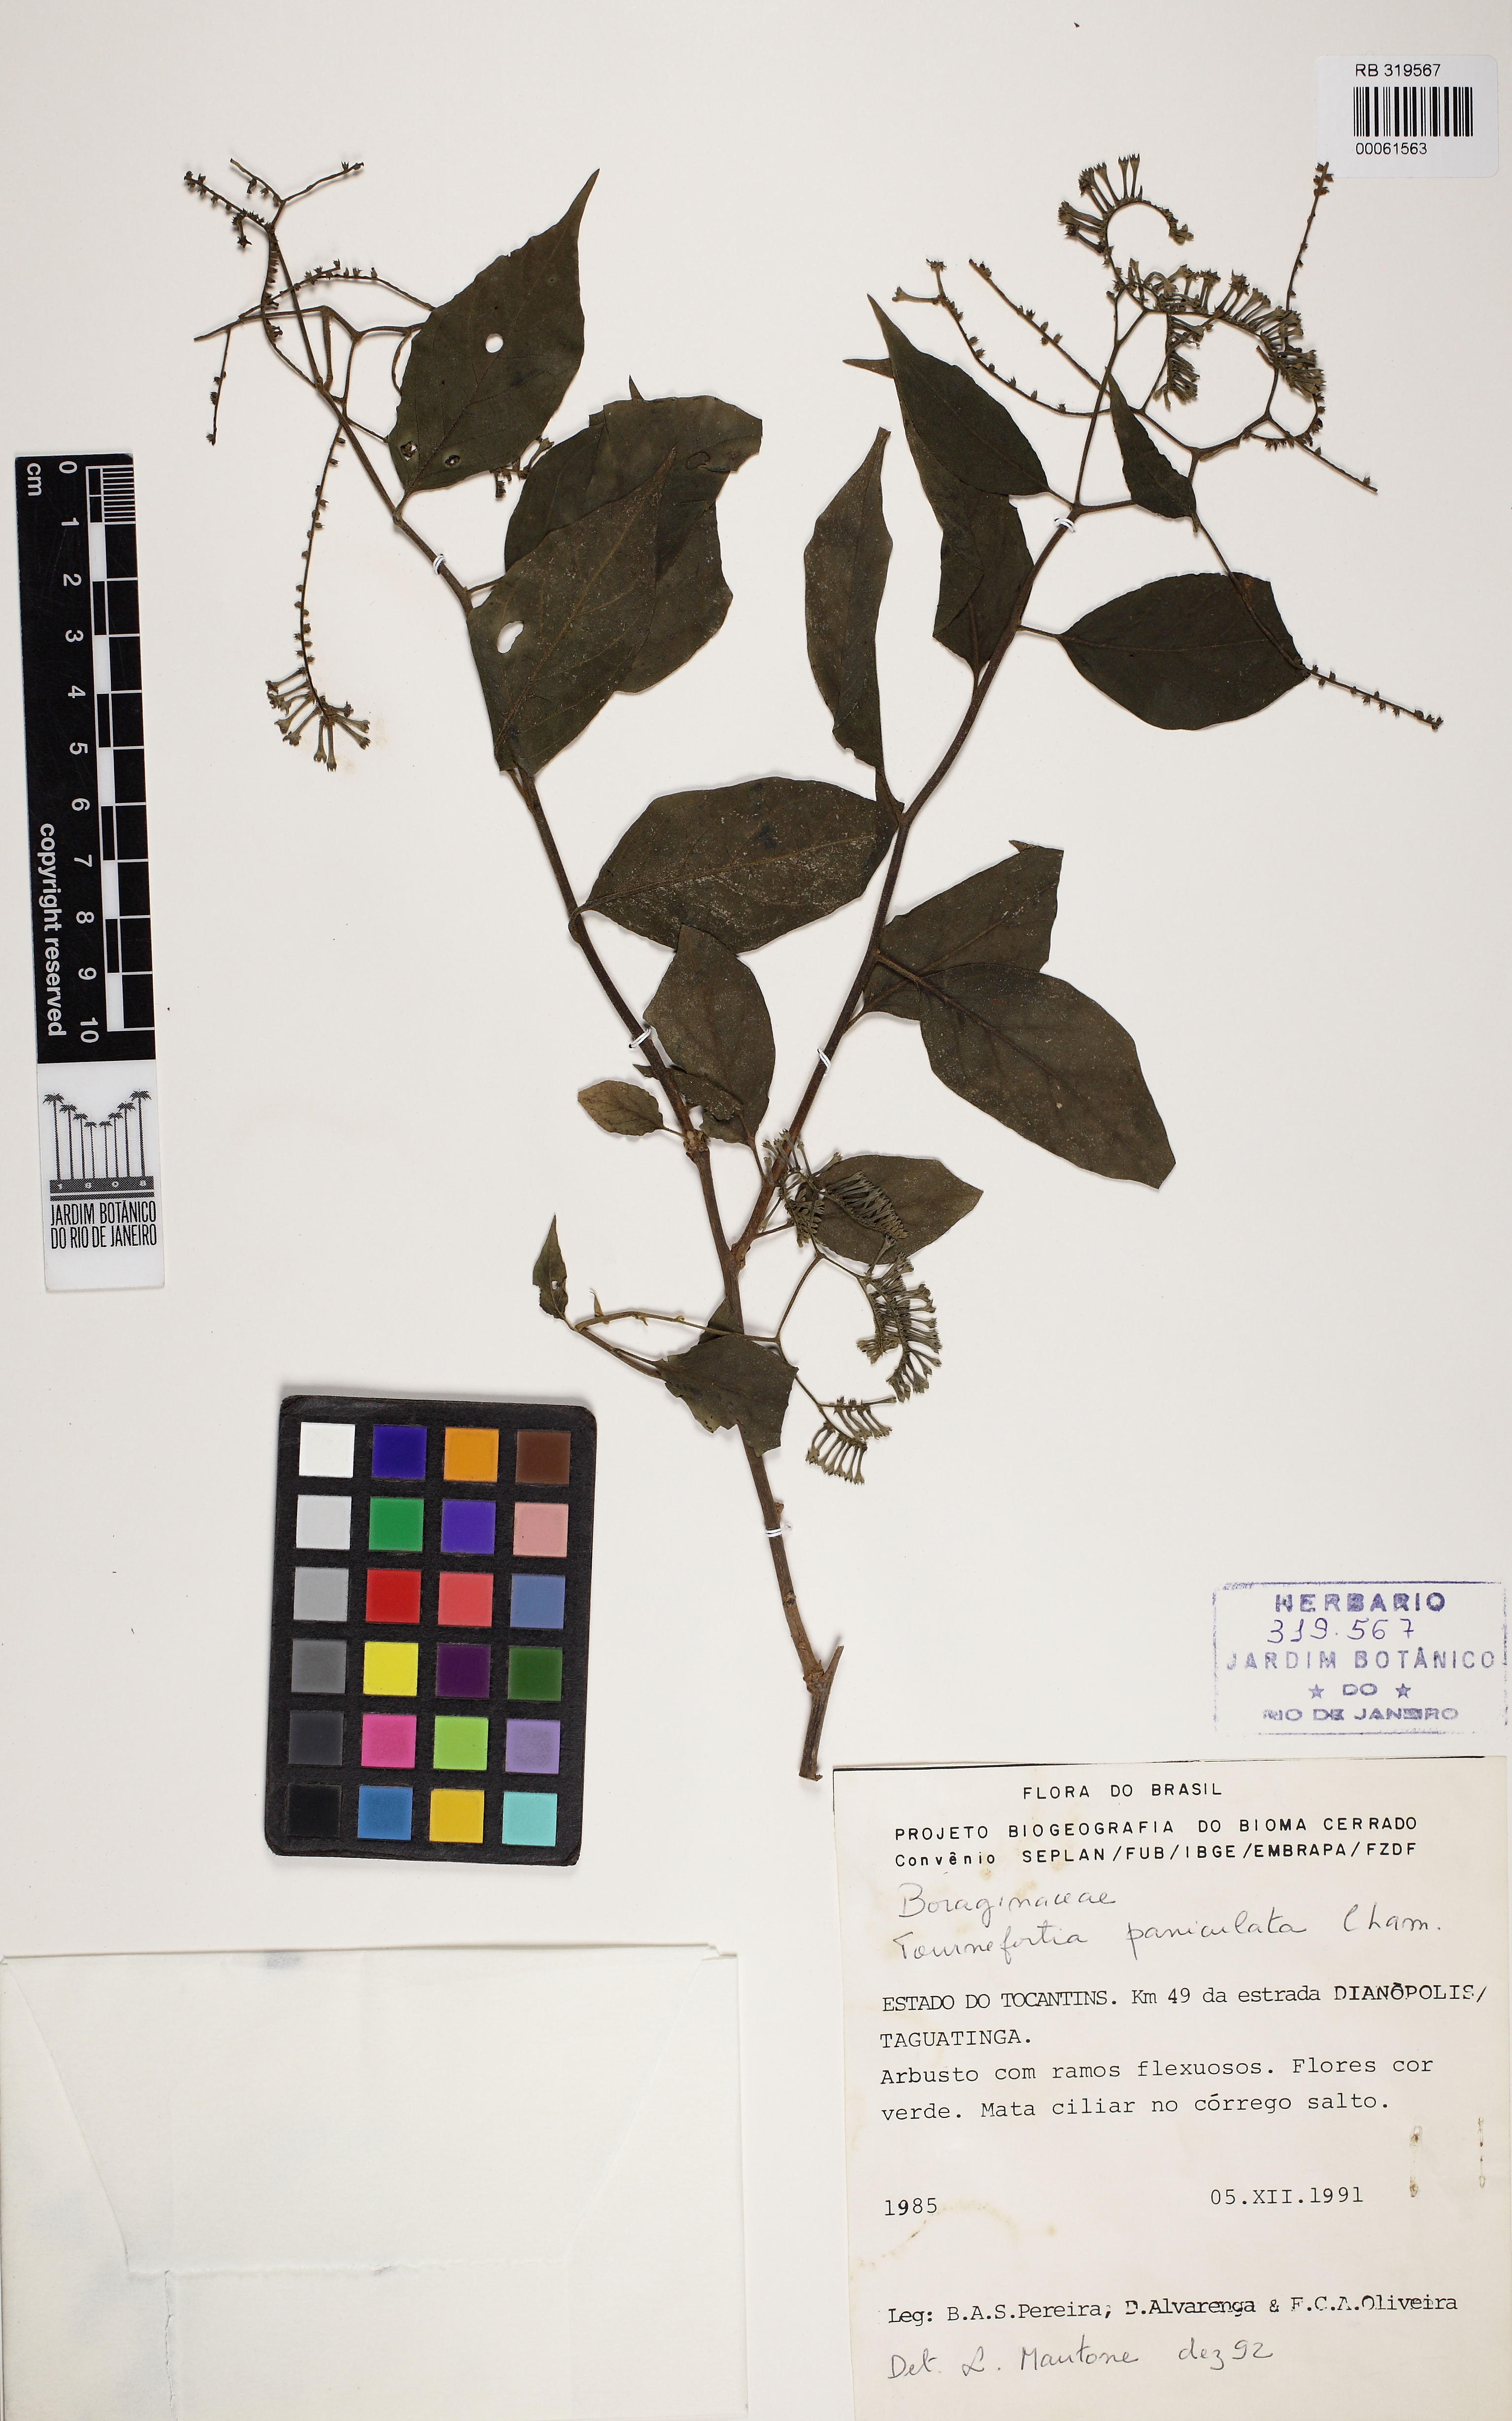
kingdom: Plantae
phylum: Tracheophyta
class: Magnoliopsida
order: Crossosomatales
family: Staphyleaceae
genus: Turpinia
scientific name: Turpinia occidentalis
